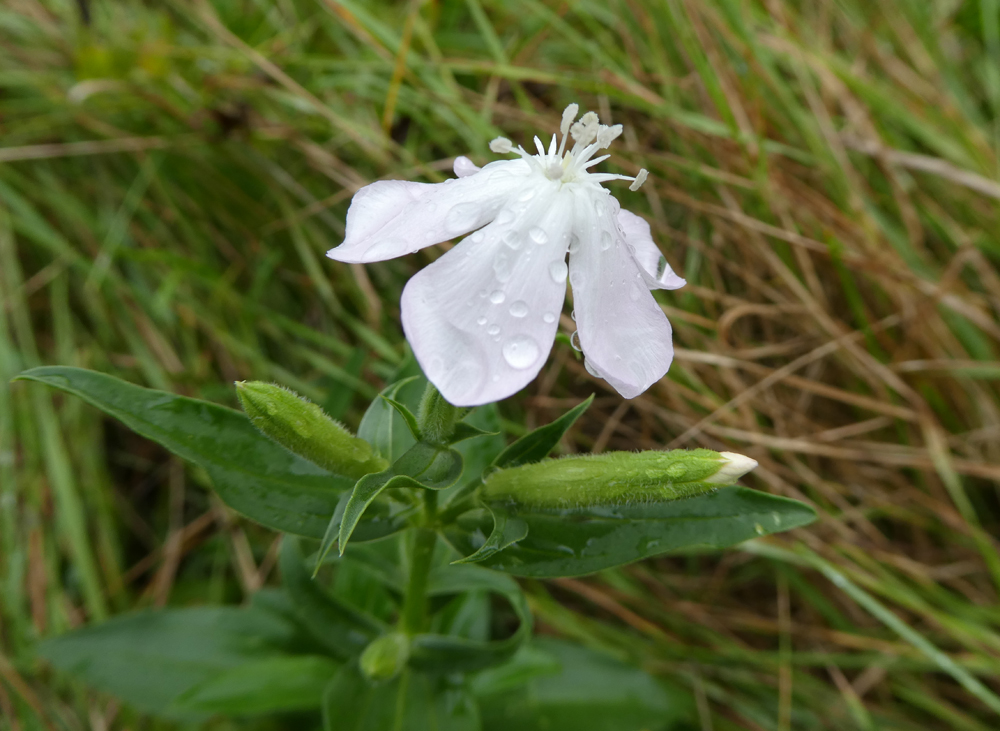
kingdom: Plantae
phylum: Tracheophyta
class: Magnoliopsida
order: Caryophyllales
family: Caryophyllaceae
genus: Saponaria
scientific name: Saponaria officinalis
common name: Soapwort
